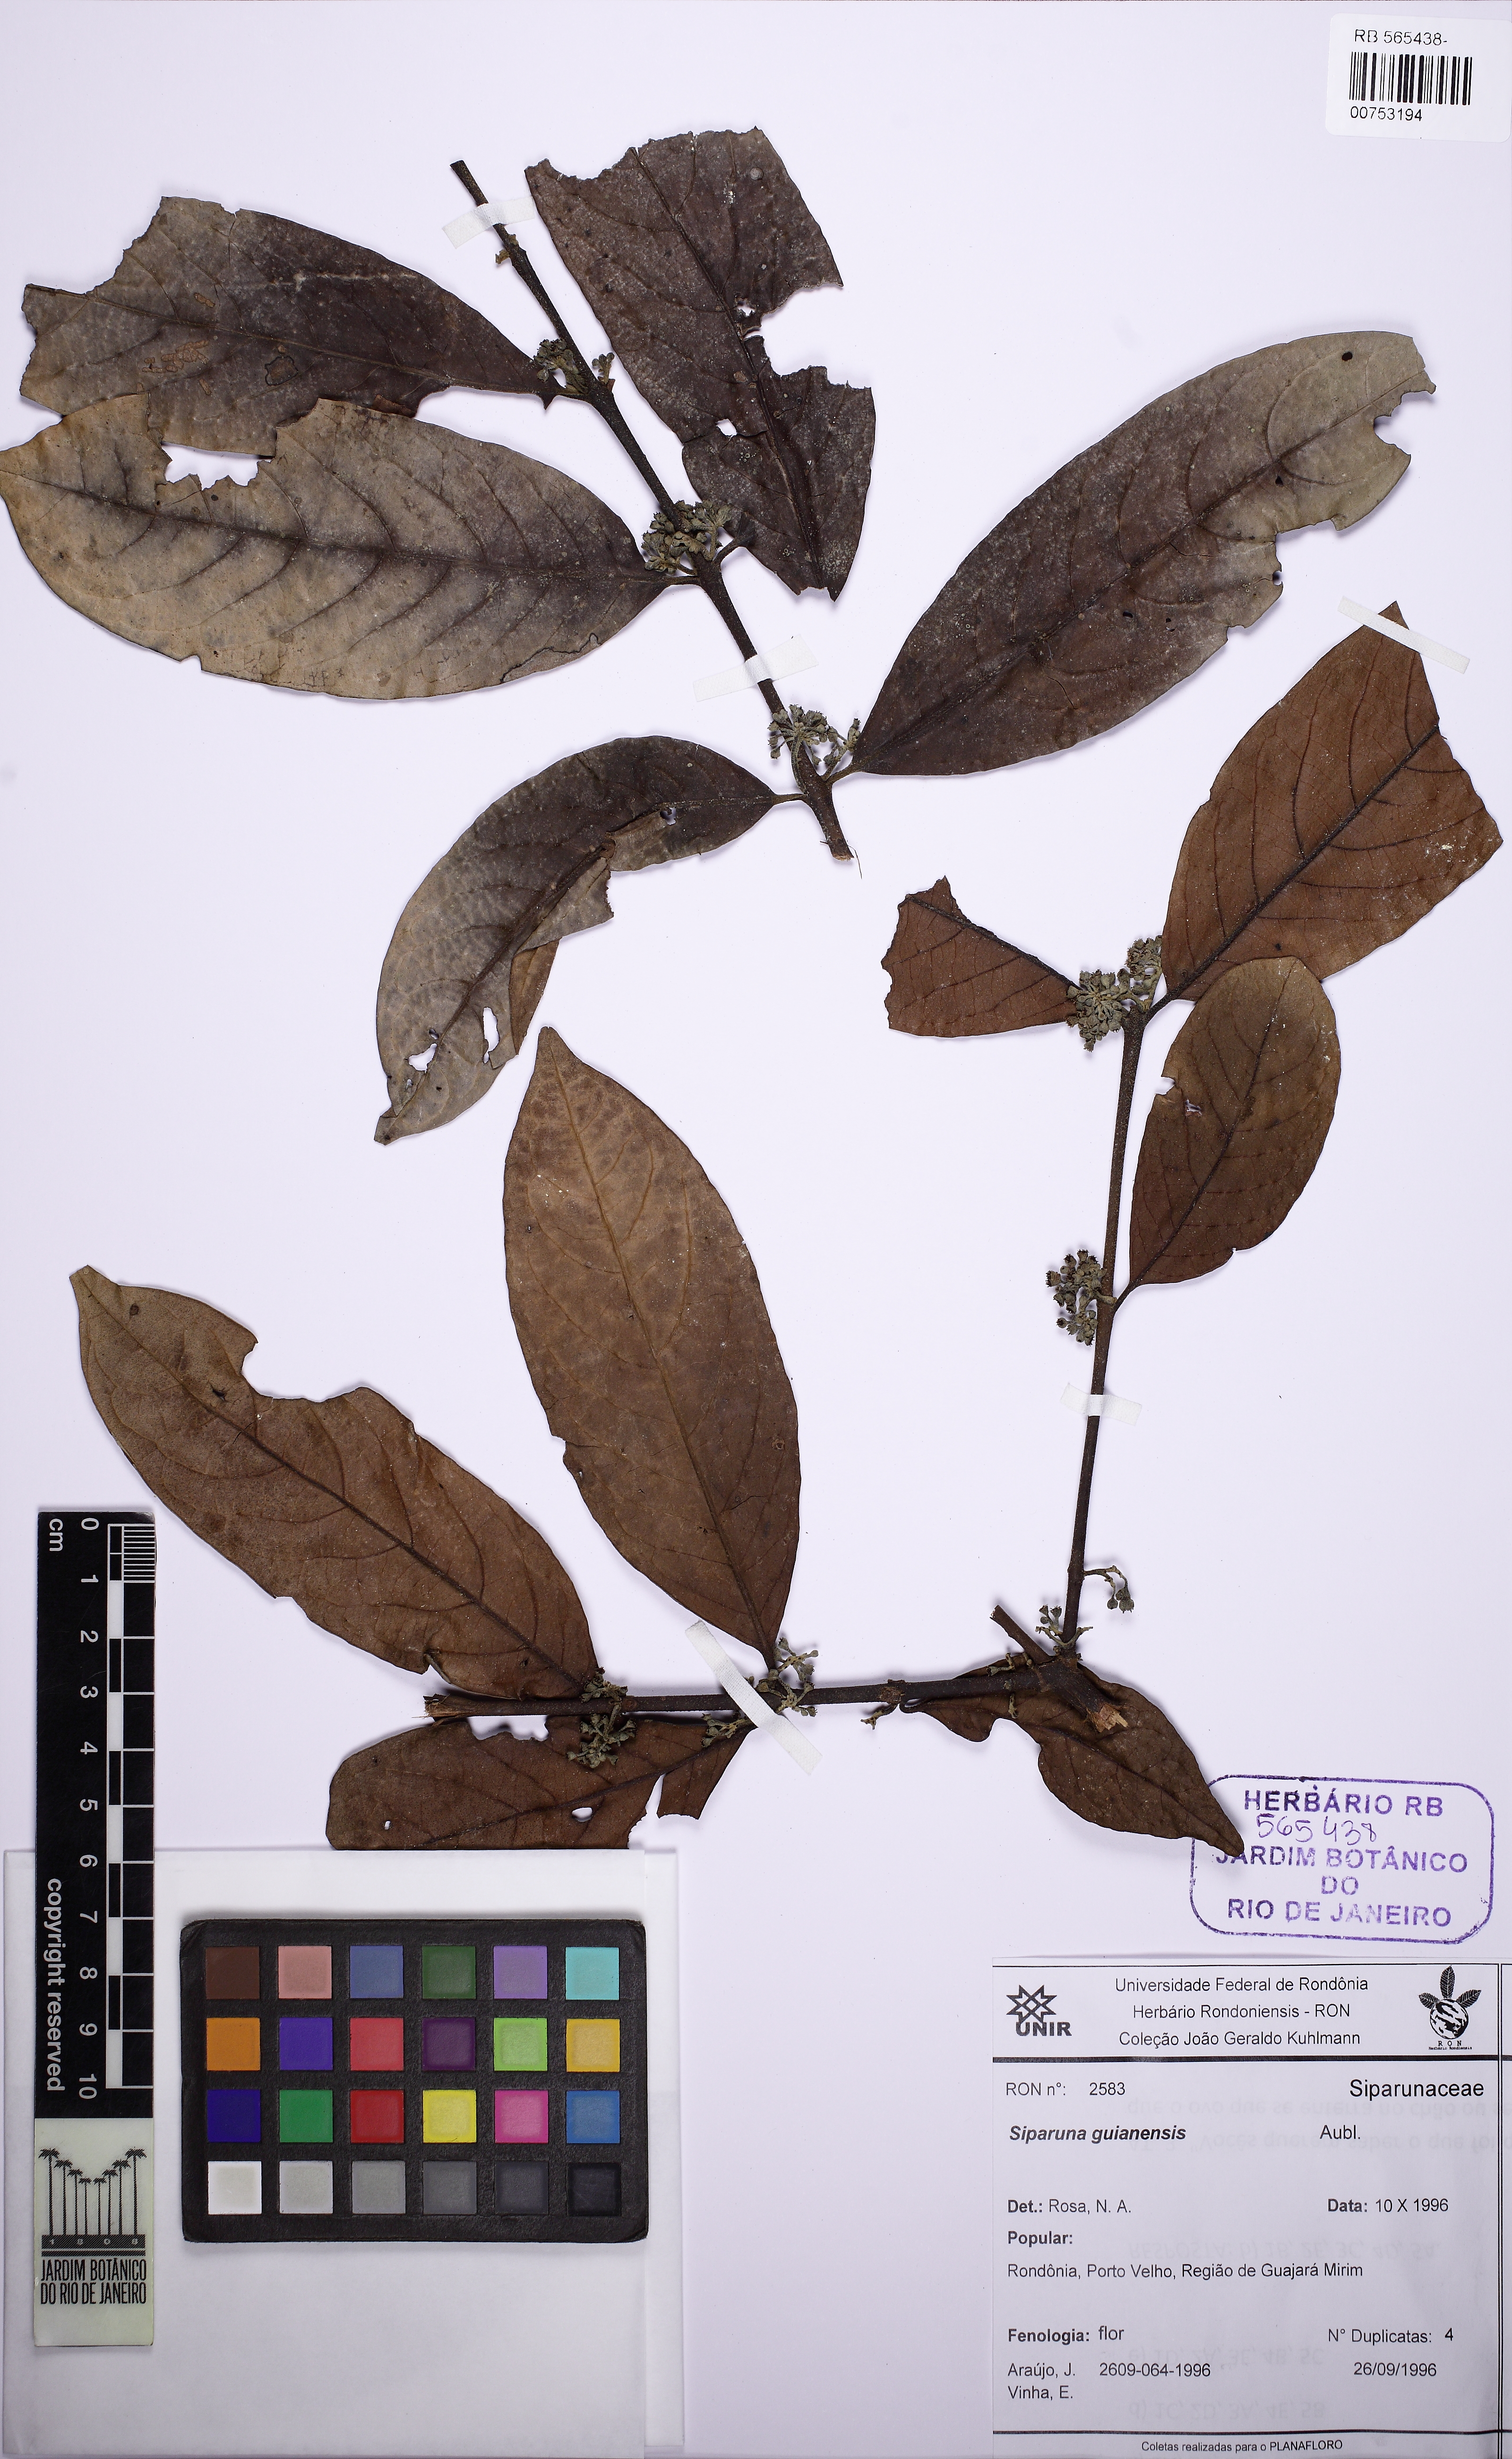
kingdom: Plantae
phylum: Tracheophyta
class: Magnoliopsida
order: Laurales
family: Siparunaceae
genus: Siparuna
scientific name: Siparuna guianensis
